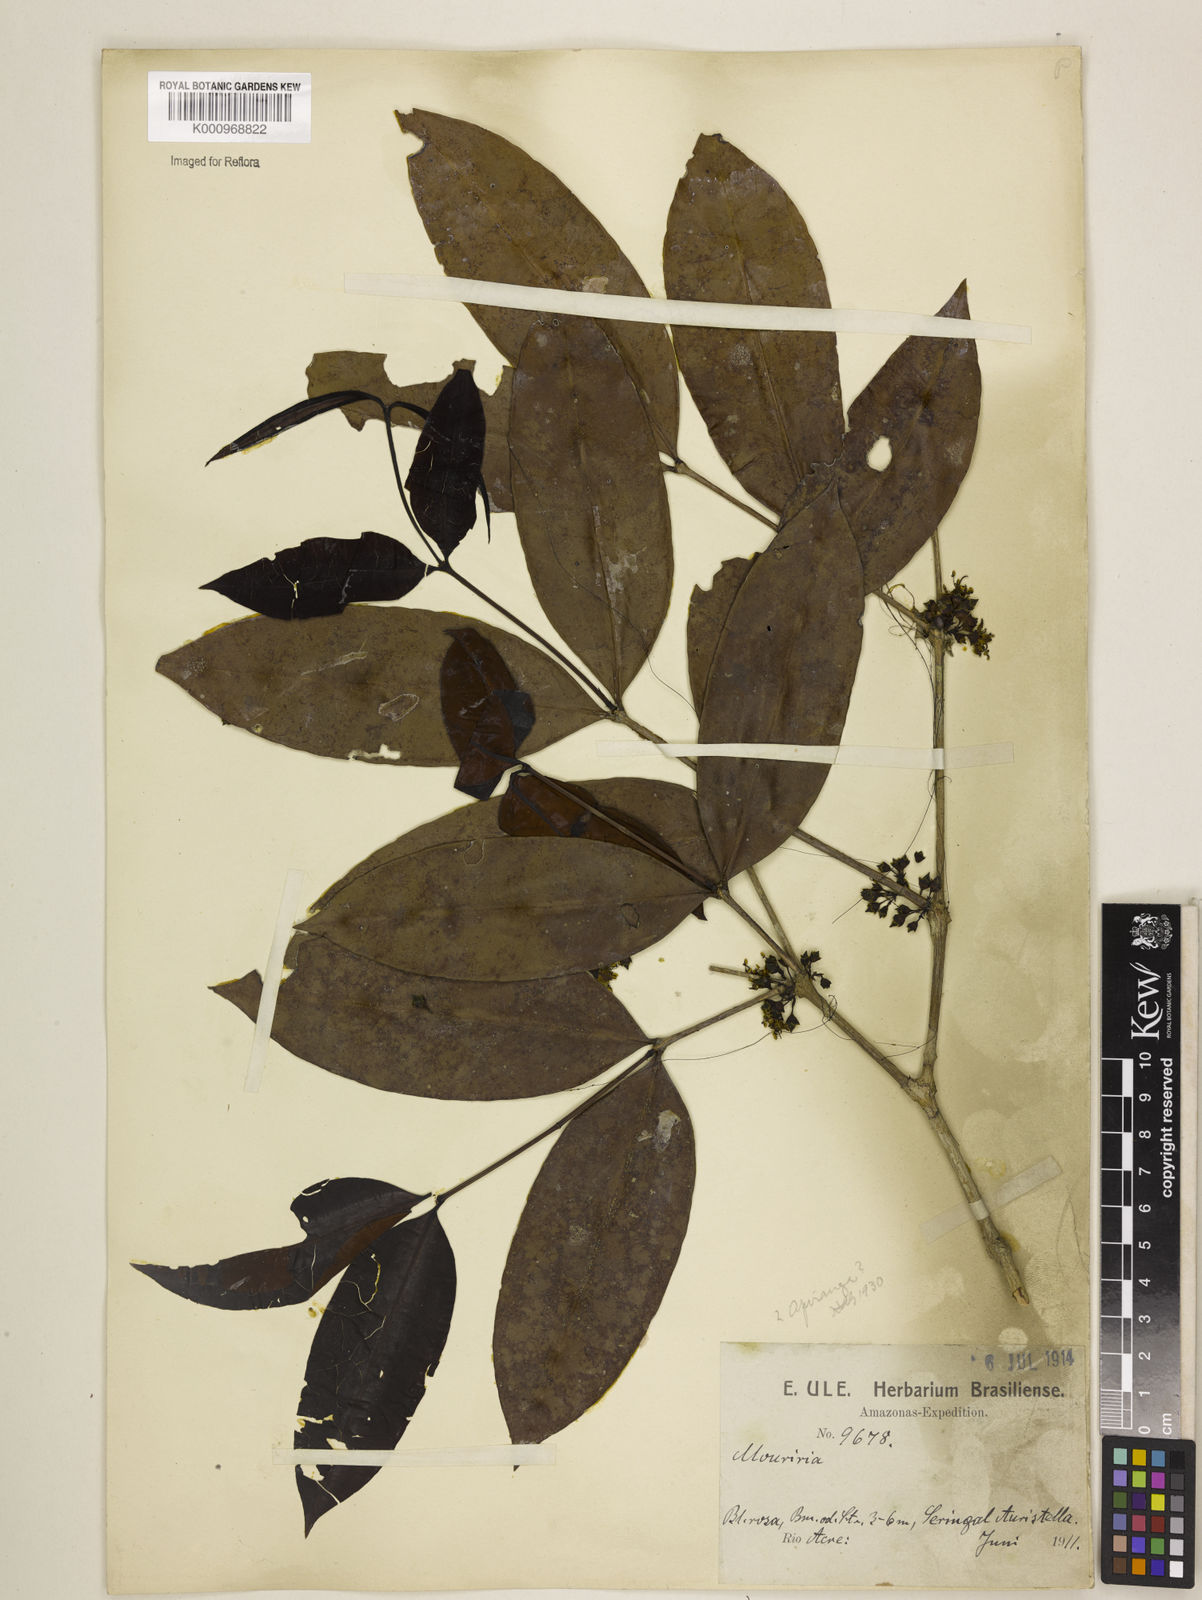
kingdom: Plantae
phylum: Tracheophyta
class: Magnoliopsida
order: Myrtales
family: Melastomataceae
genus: Mouriri
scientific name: Mouriri apiranga
